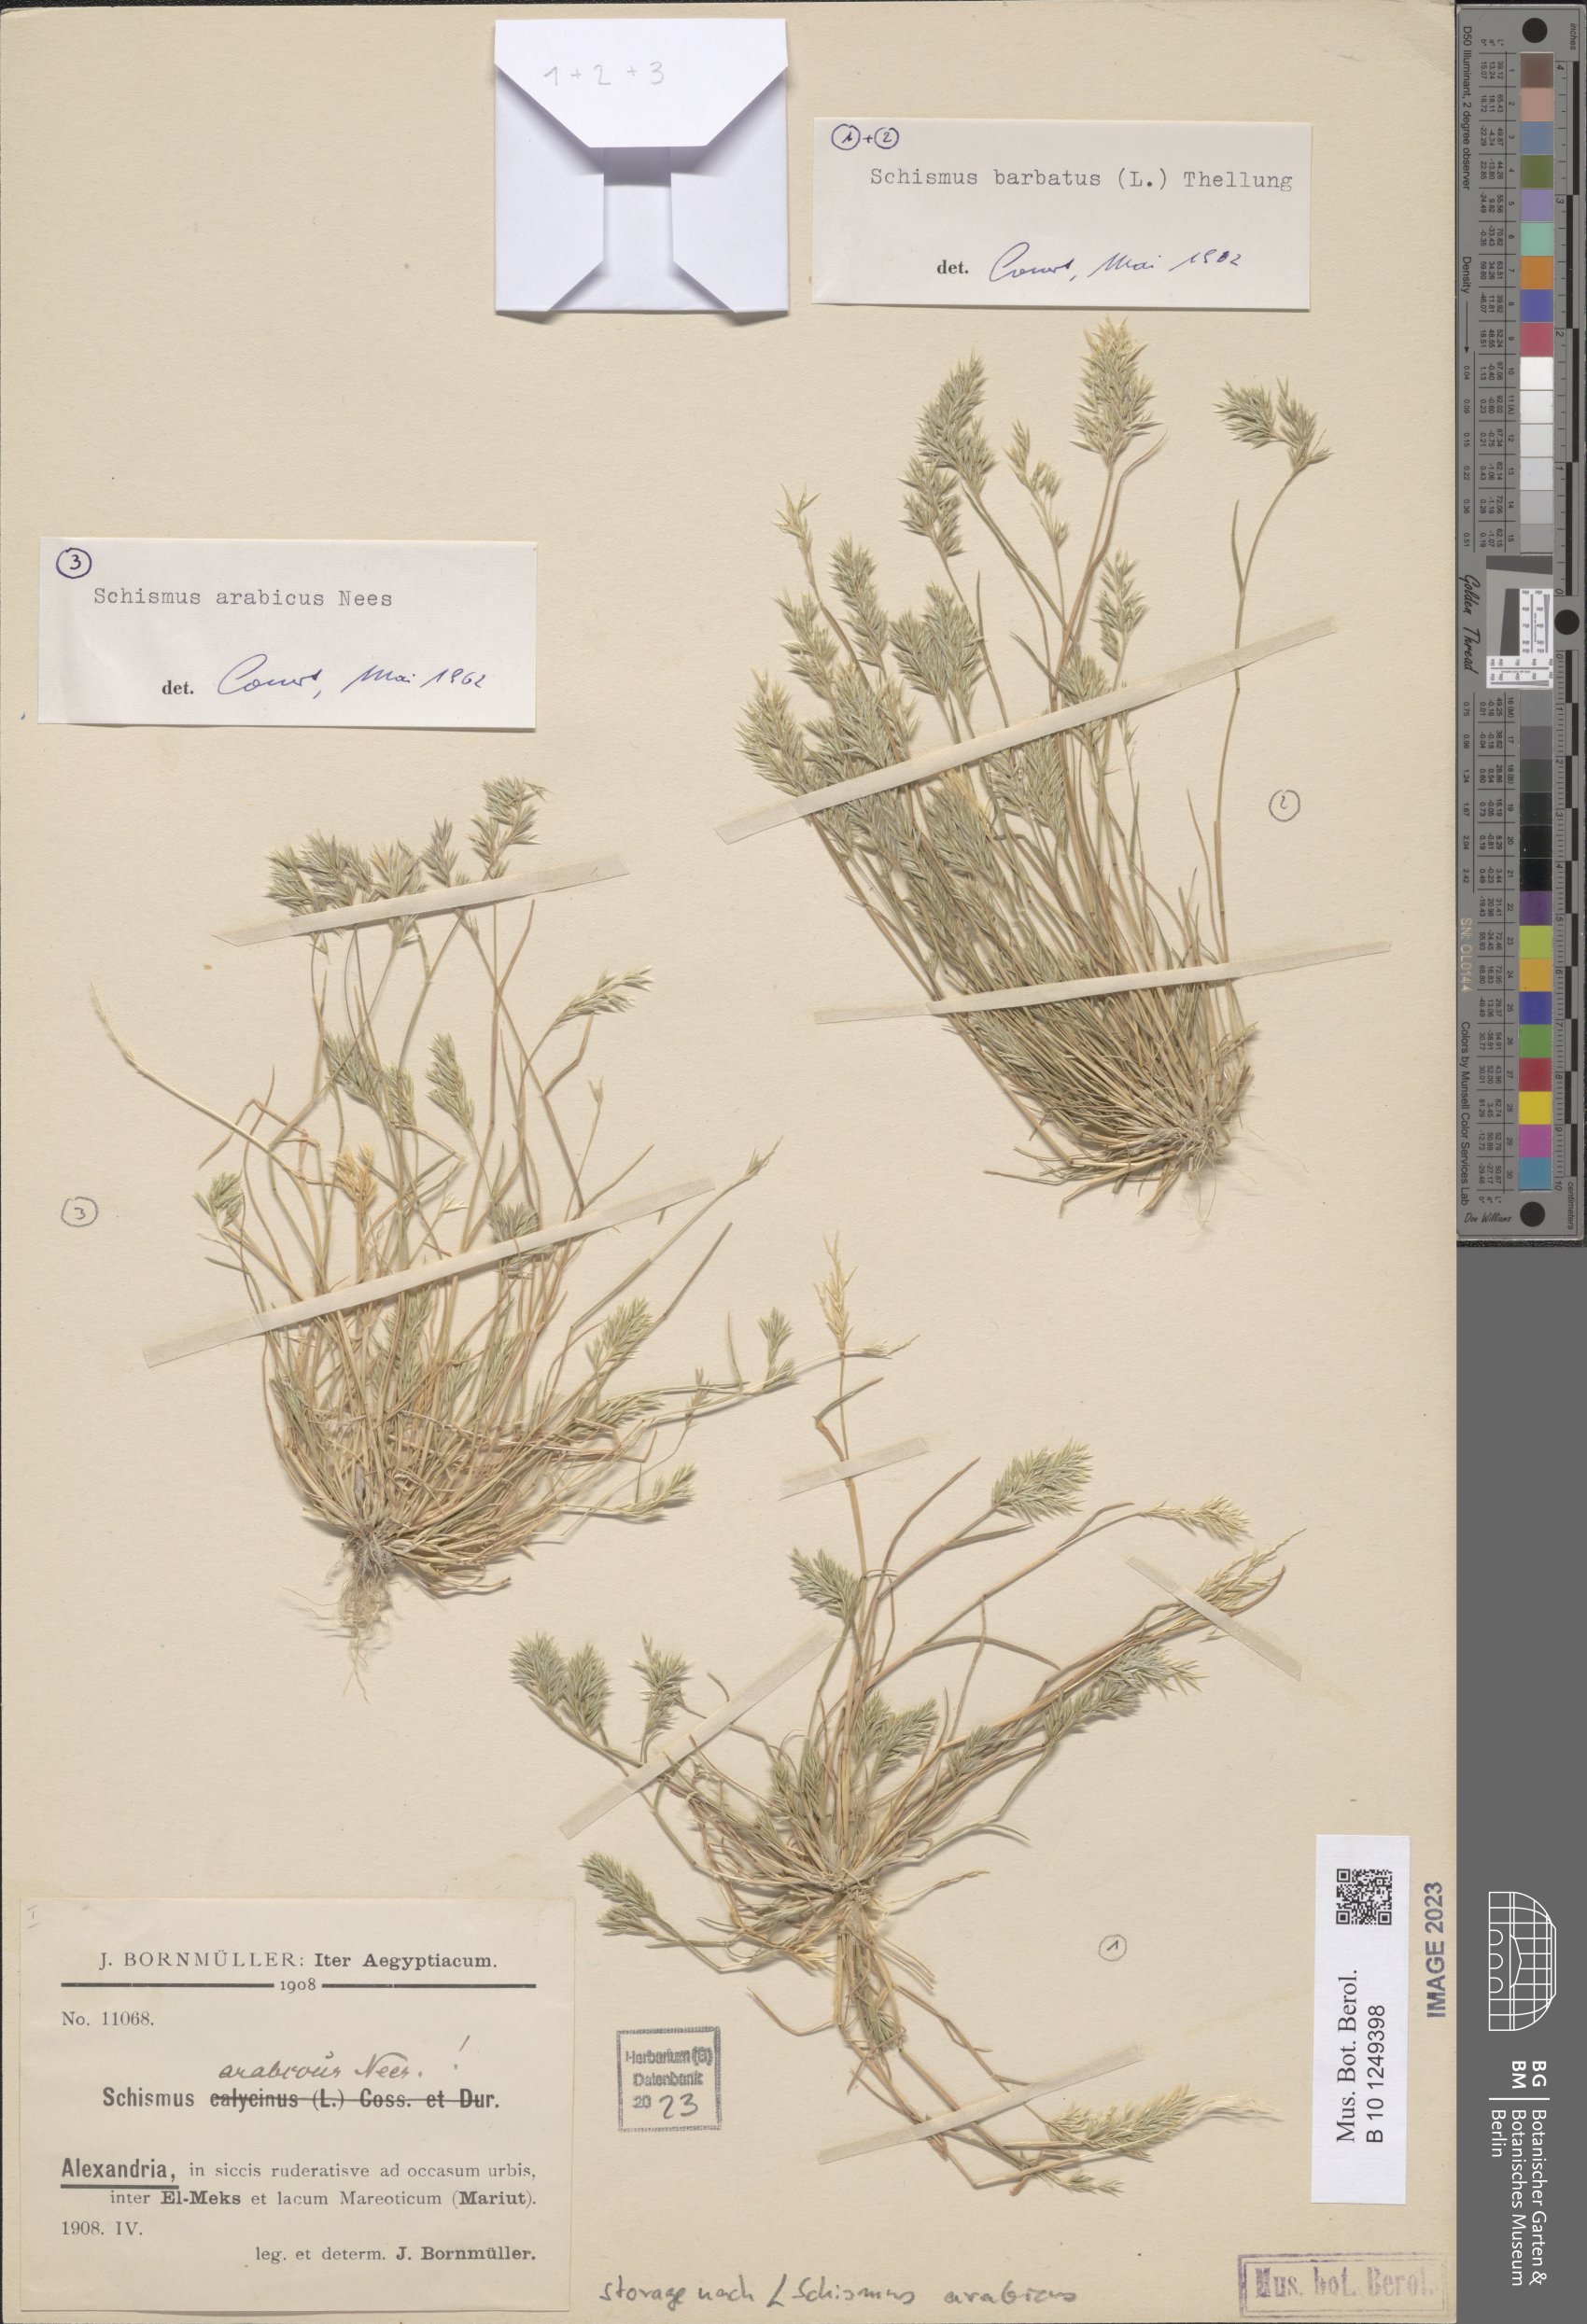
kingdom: Plantae
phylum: Tracheophyta
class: Liliopsida
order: Poales
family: Poaceae
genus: Schismus
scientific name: Schismus arabicus
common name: Arabian schismus
